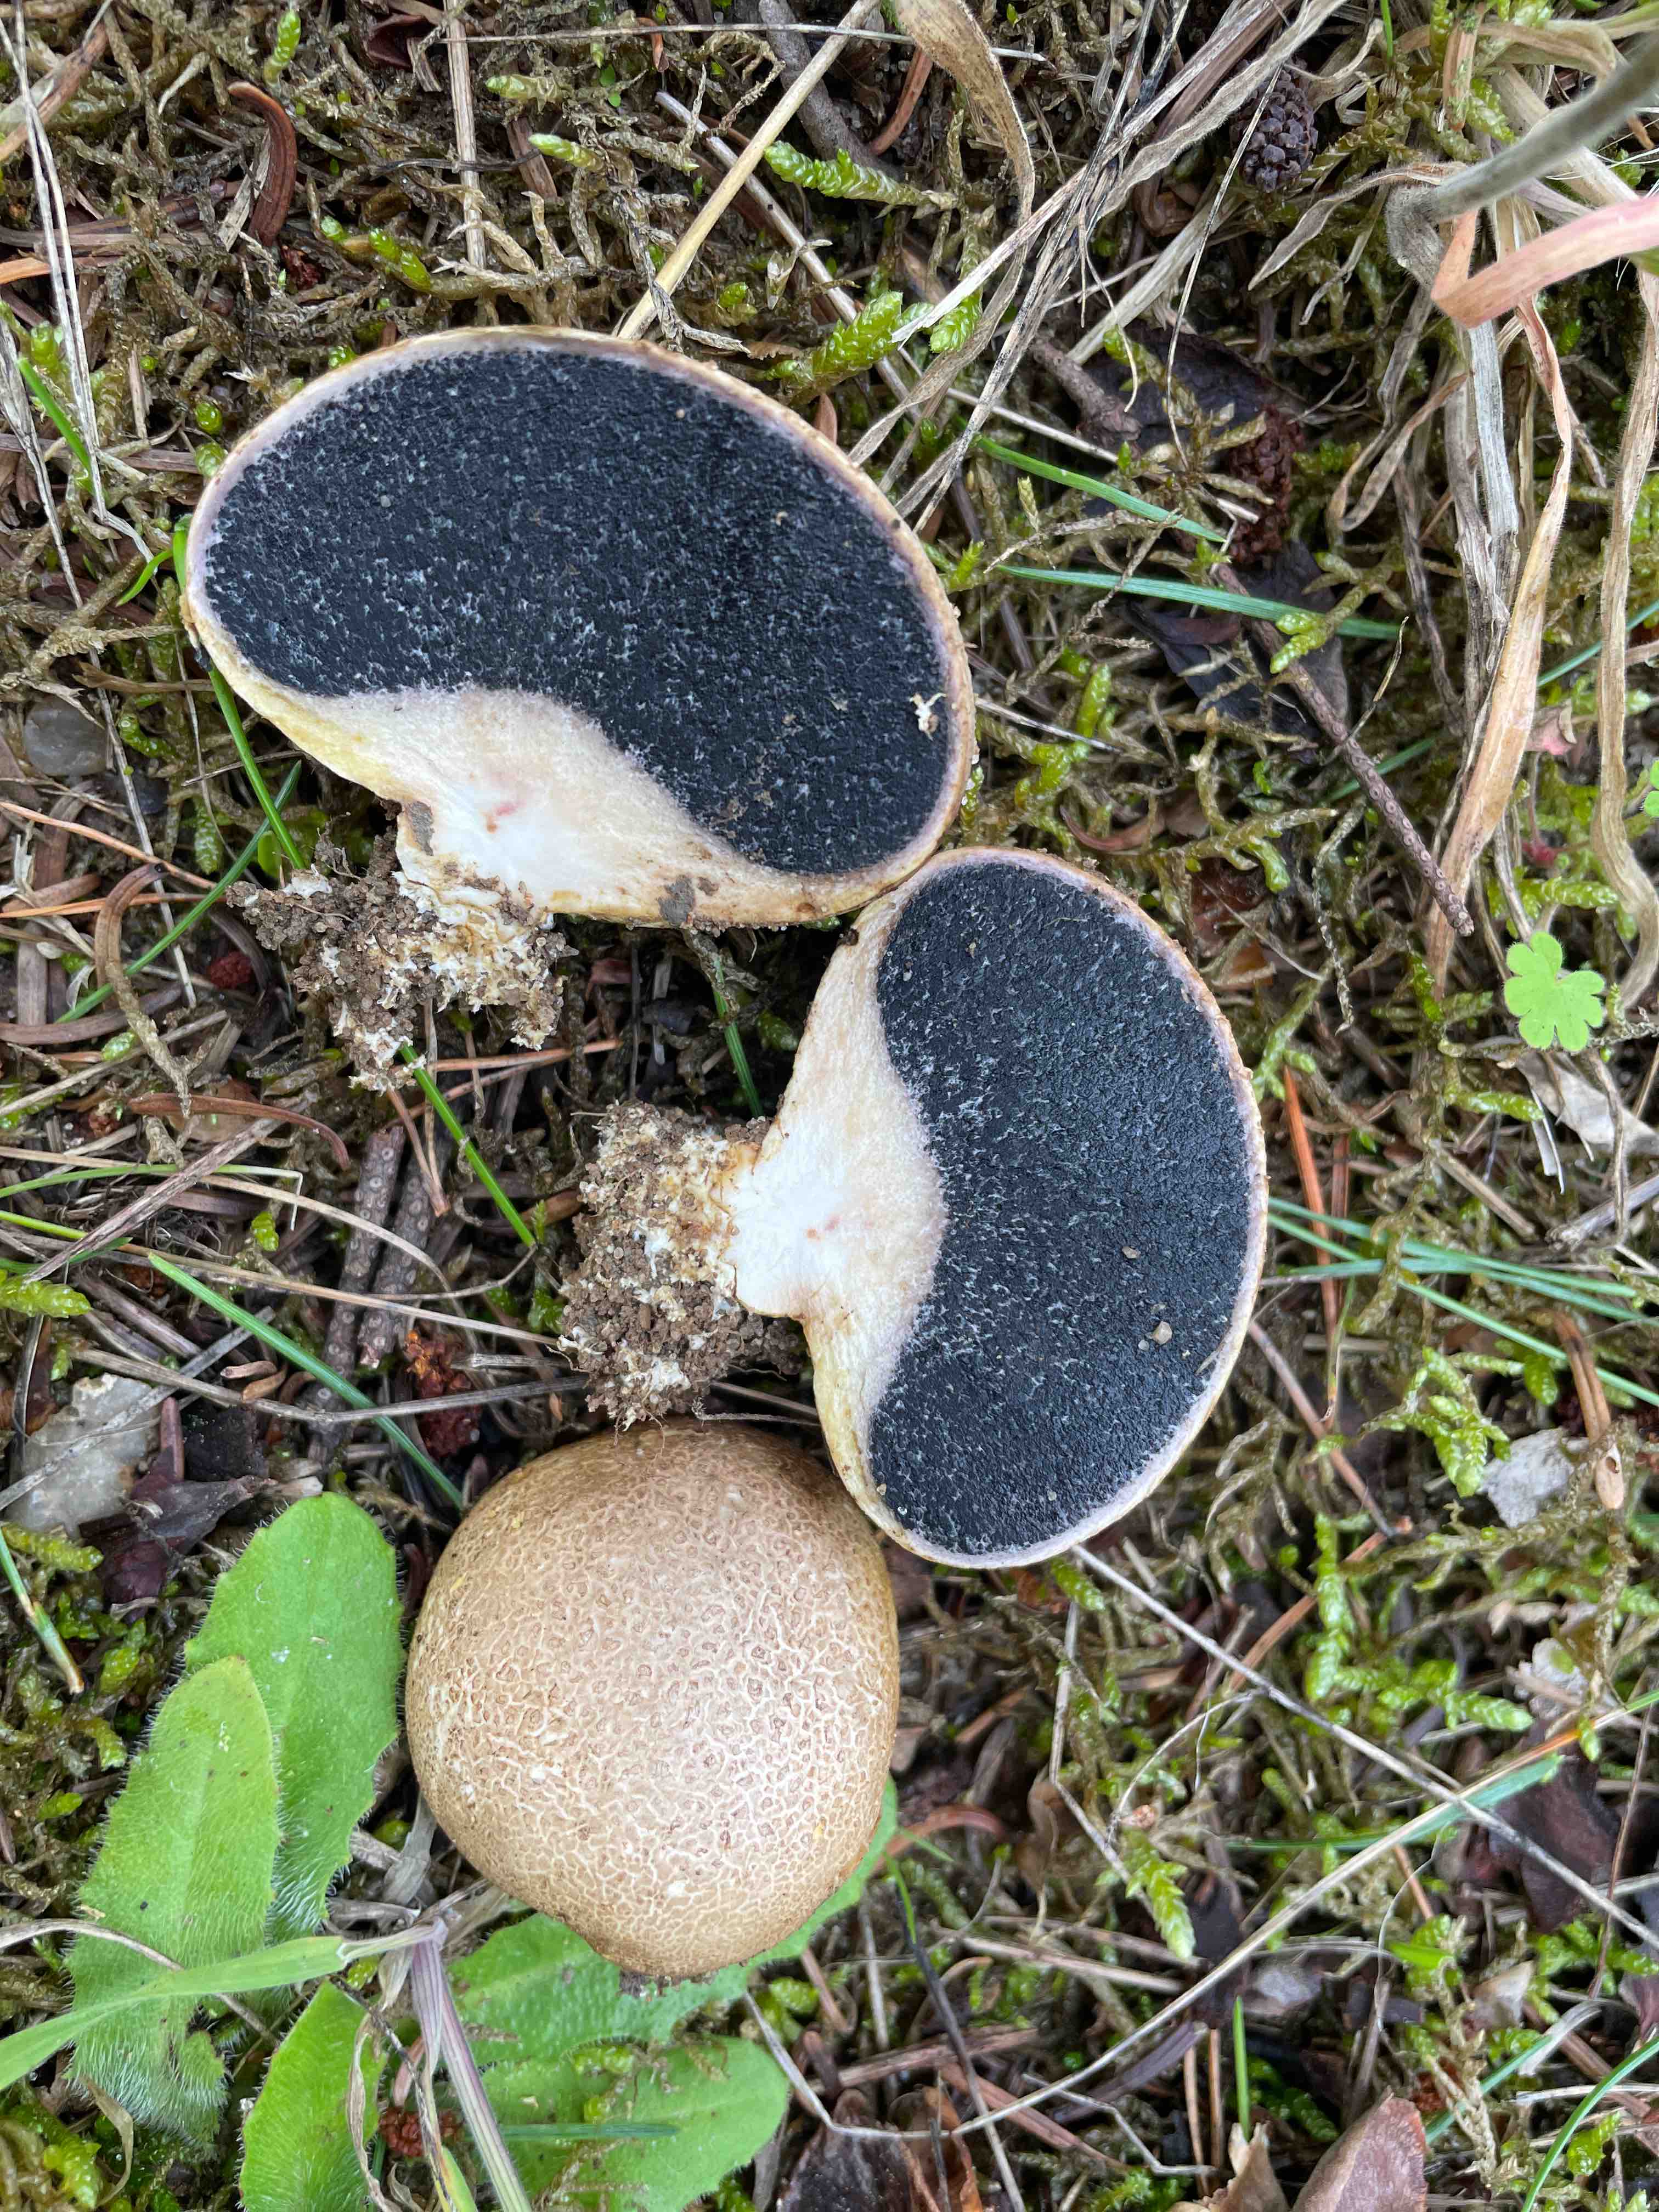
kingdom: Fungi
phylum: Basidiomycota
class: Agaricomycetes
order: Boletales
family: Sclerodermataceae
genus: Scleroderma
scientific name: Scleroderma bovista
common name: bovist-bruskbold
